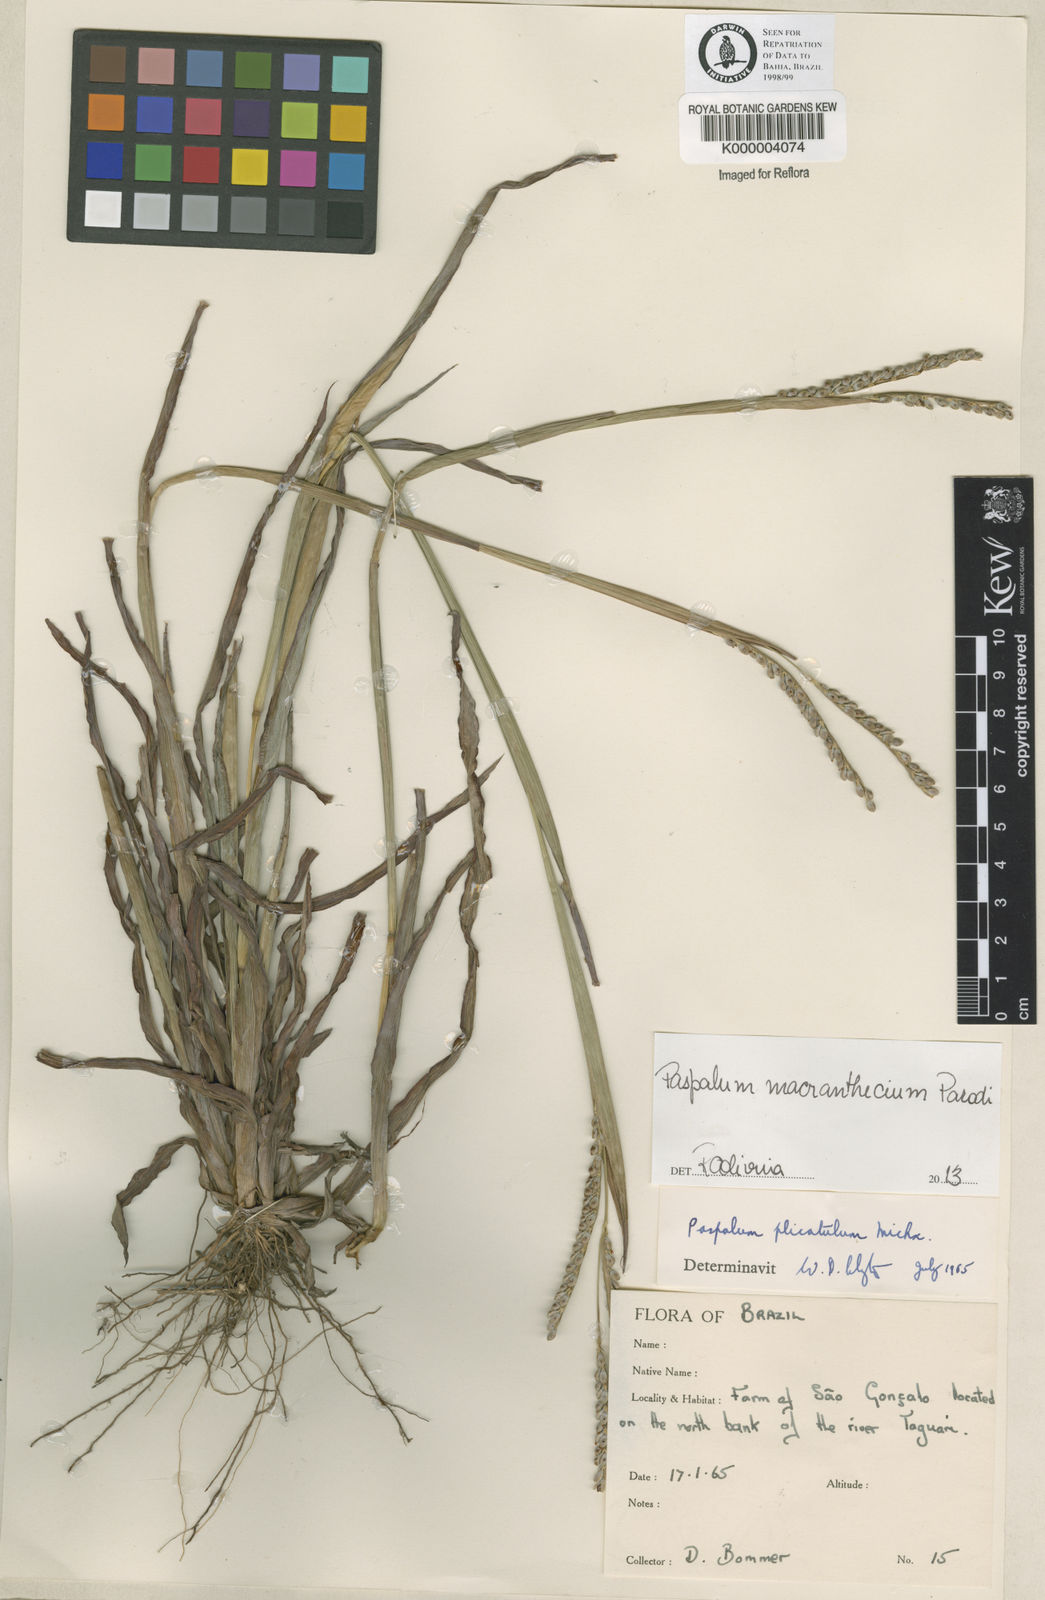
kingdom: Plantae
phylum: Tracheophyta
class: Liliopsida
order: Poales
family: Poaceae
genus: Paspalum
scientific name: Paspalum guenoarum
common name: Wintergreen paspalum
